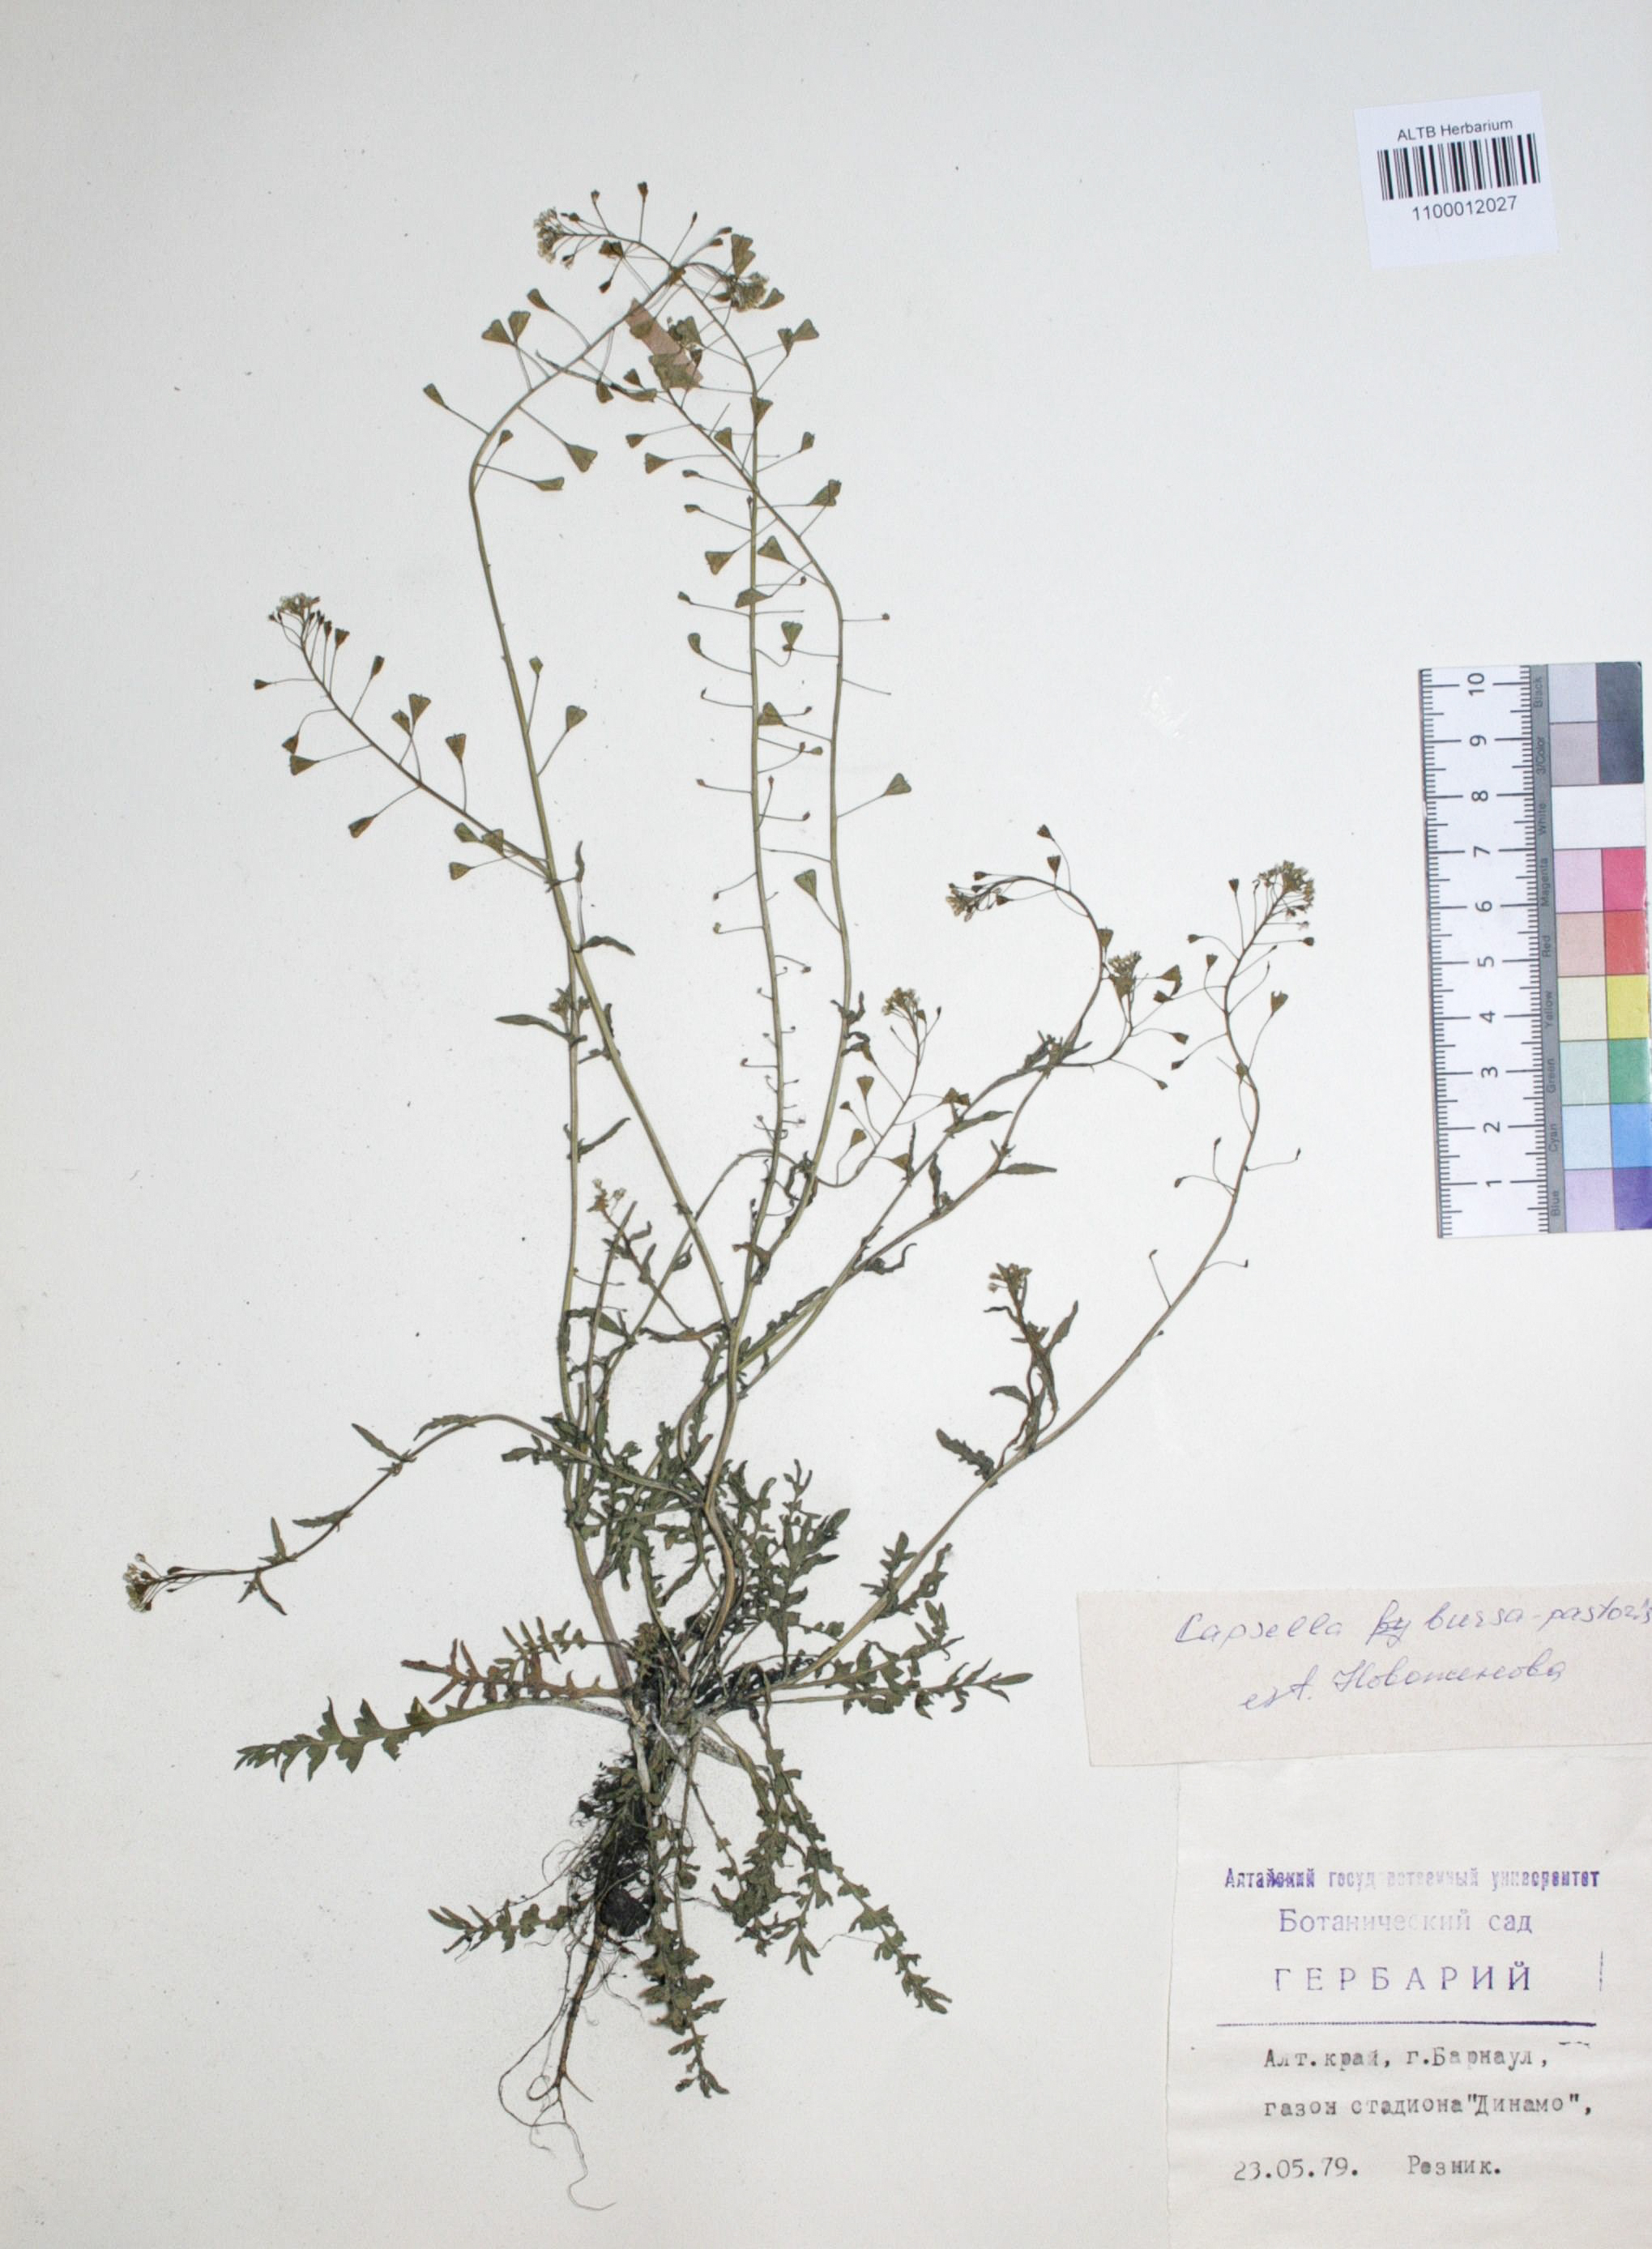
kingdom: Plantae
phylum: Tracheophyta
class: Magnoliopsida
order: Brassicales
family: Brassicaceae
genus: Capsella
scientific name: Capsella bursa-pastoris
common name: Shepherd's purse
